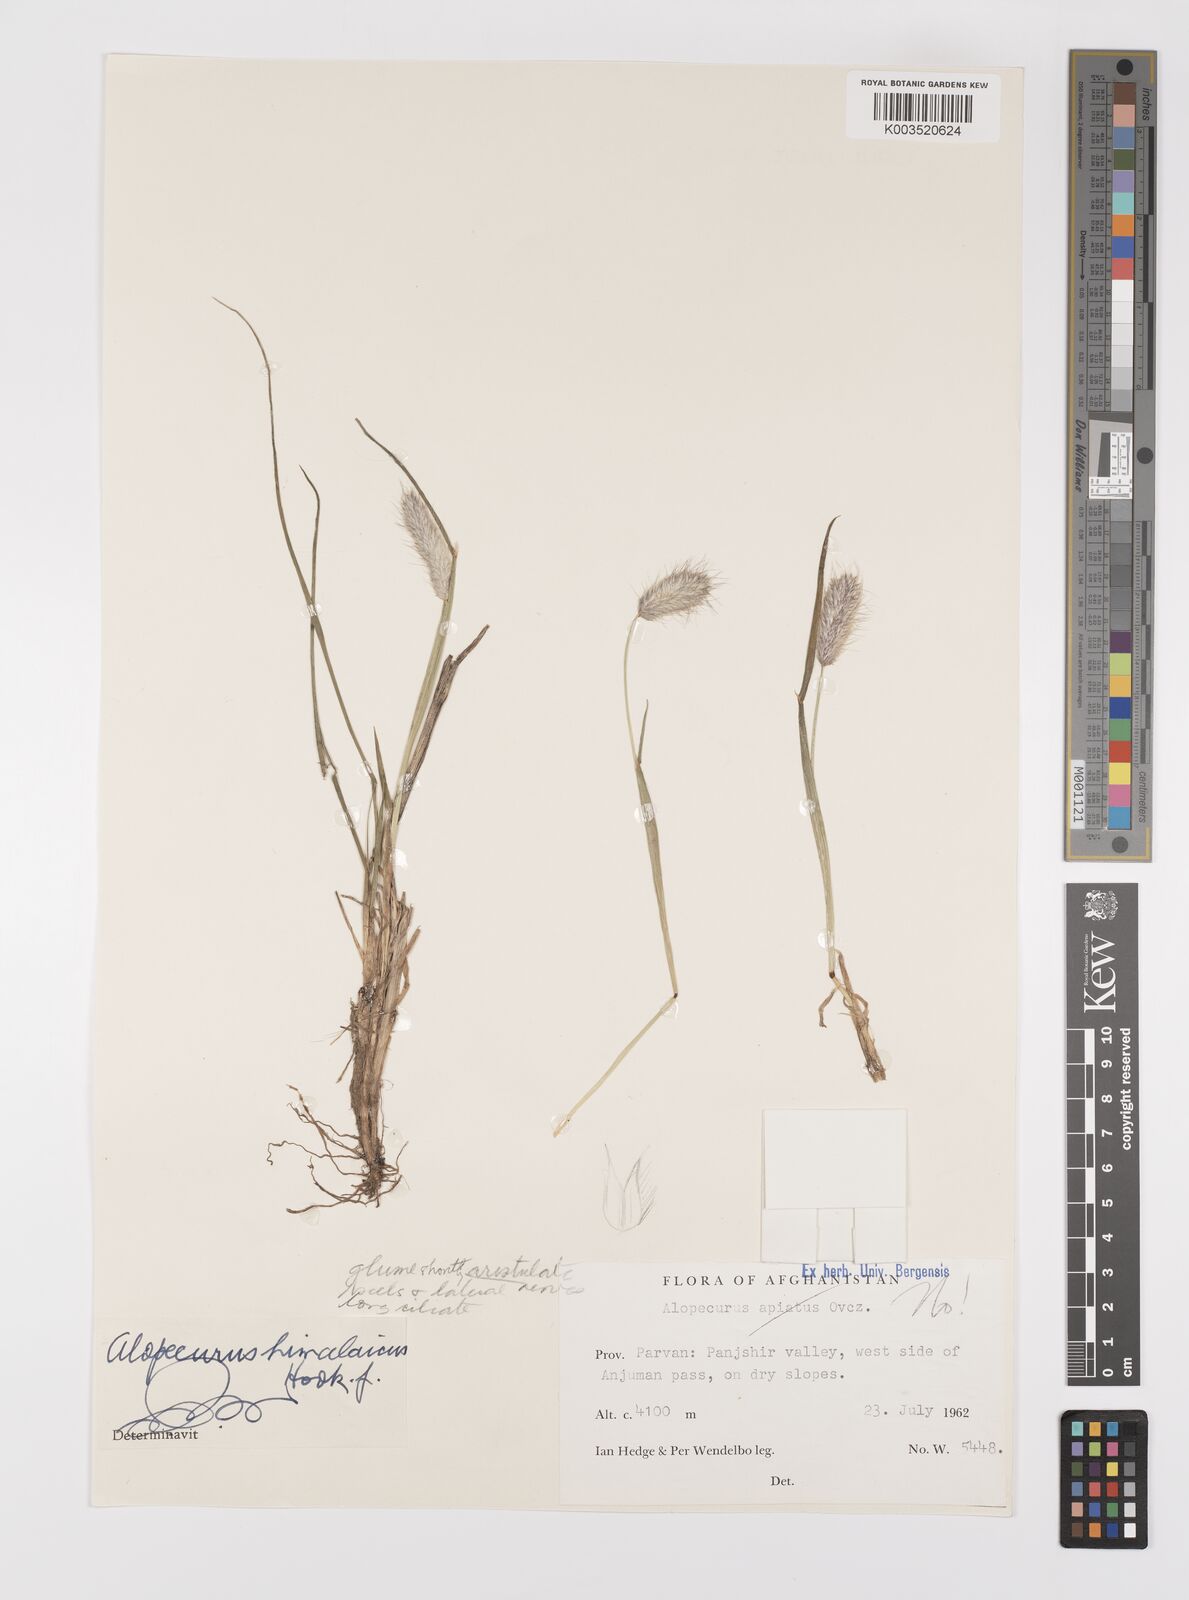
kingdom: Plantae
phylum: Tracheophyta
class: Liliopsida
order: Poales
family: Poaceae
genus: Alopecurus
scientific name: Alopecurus himalaicus
